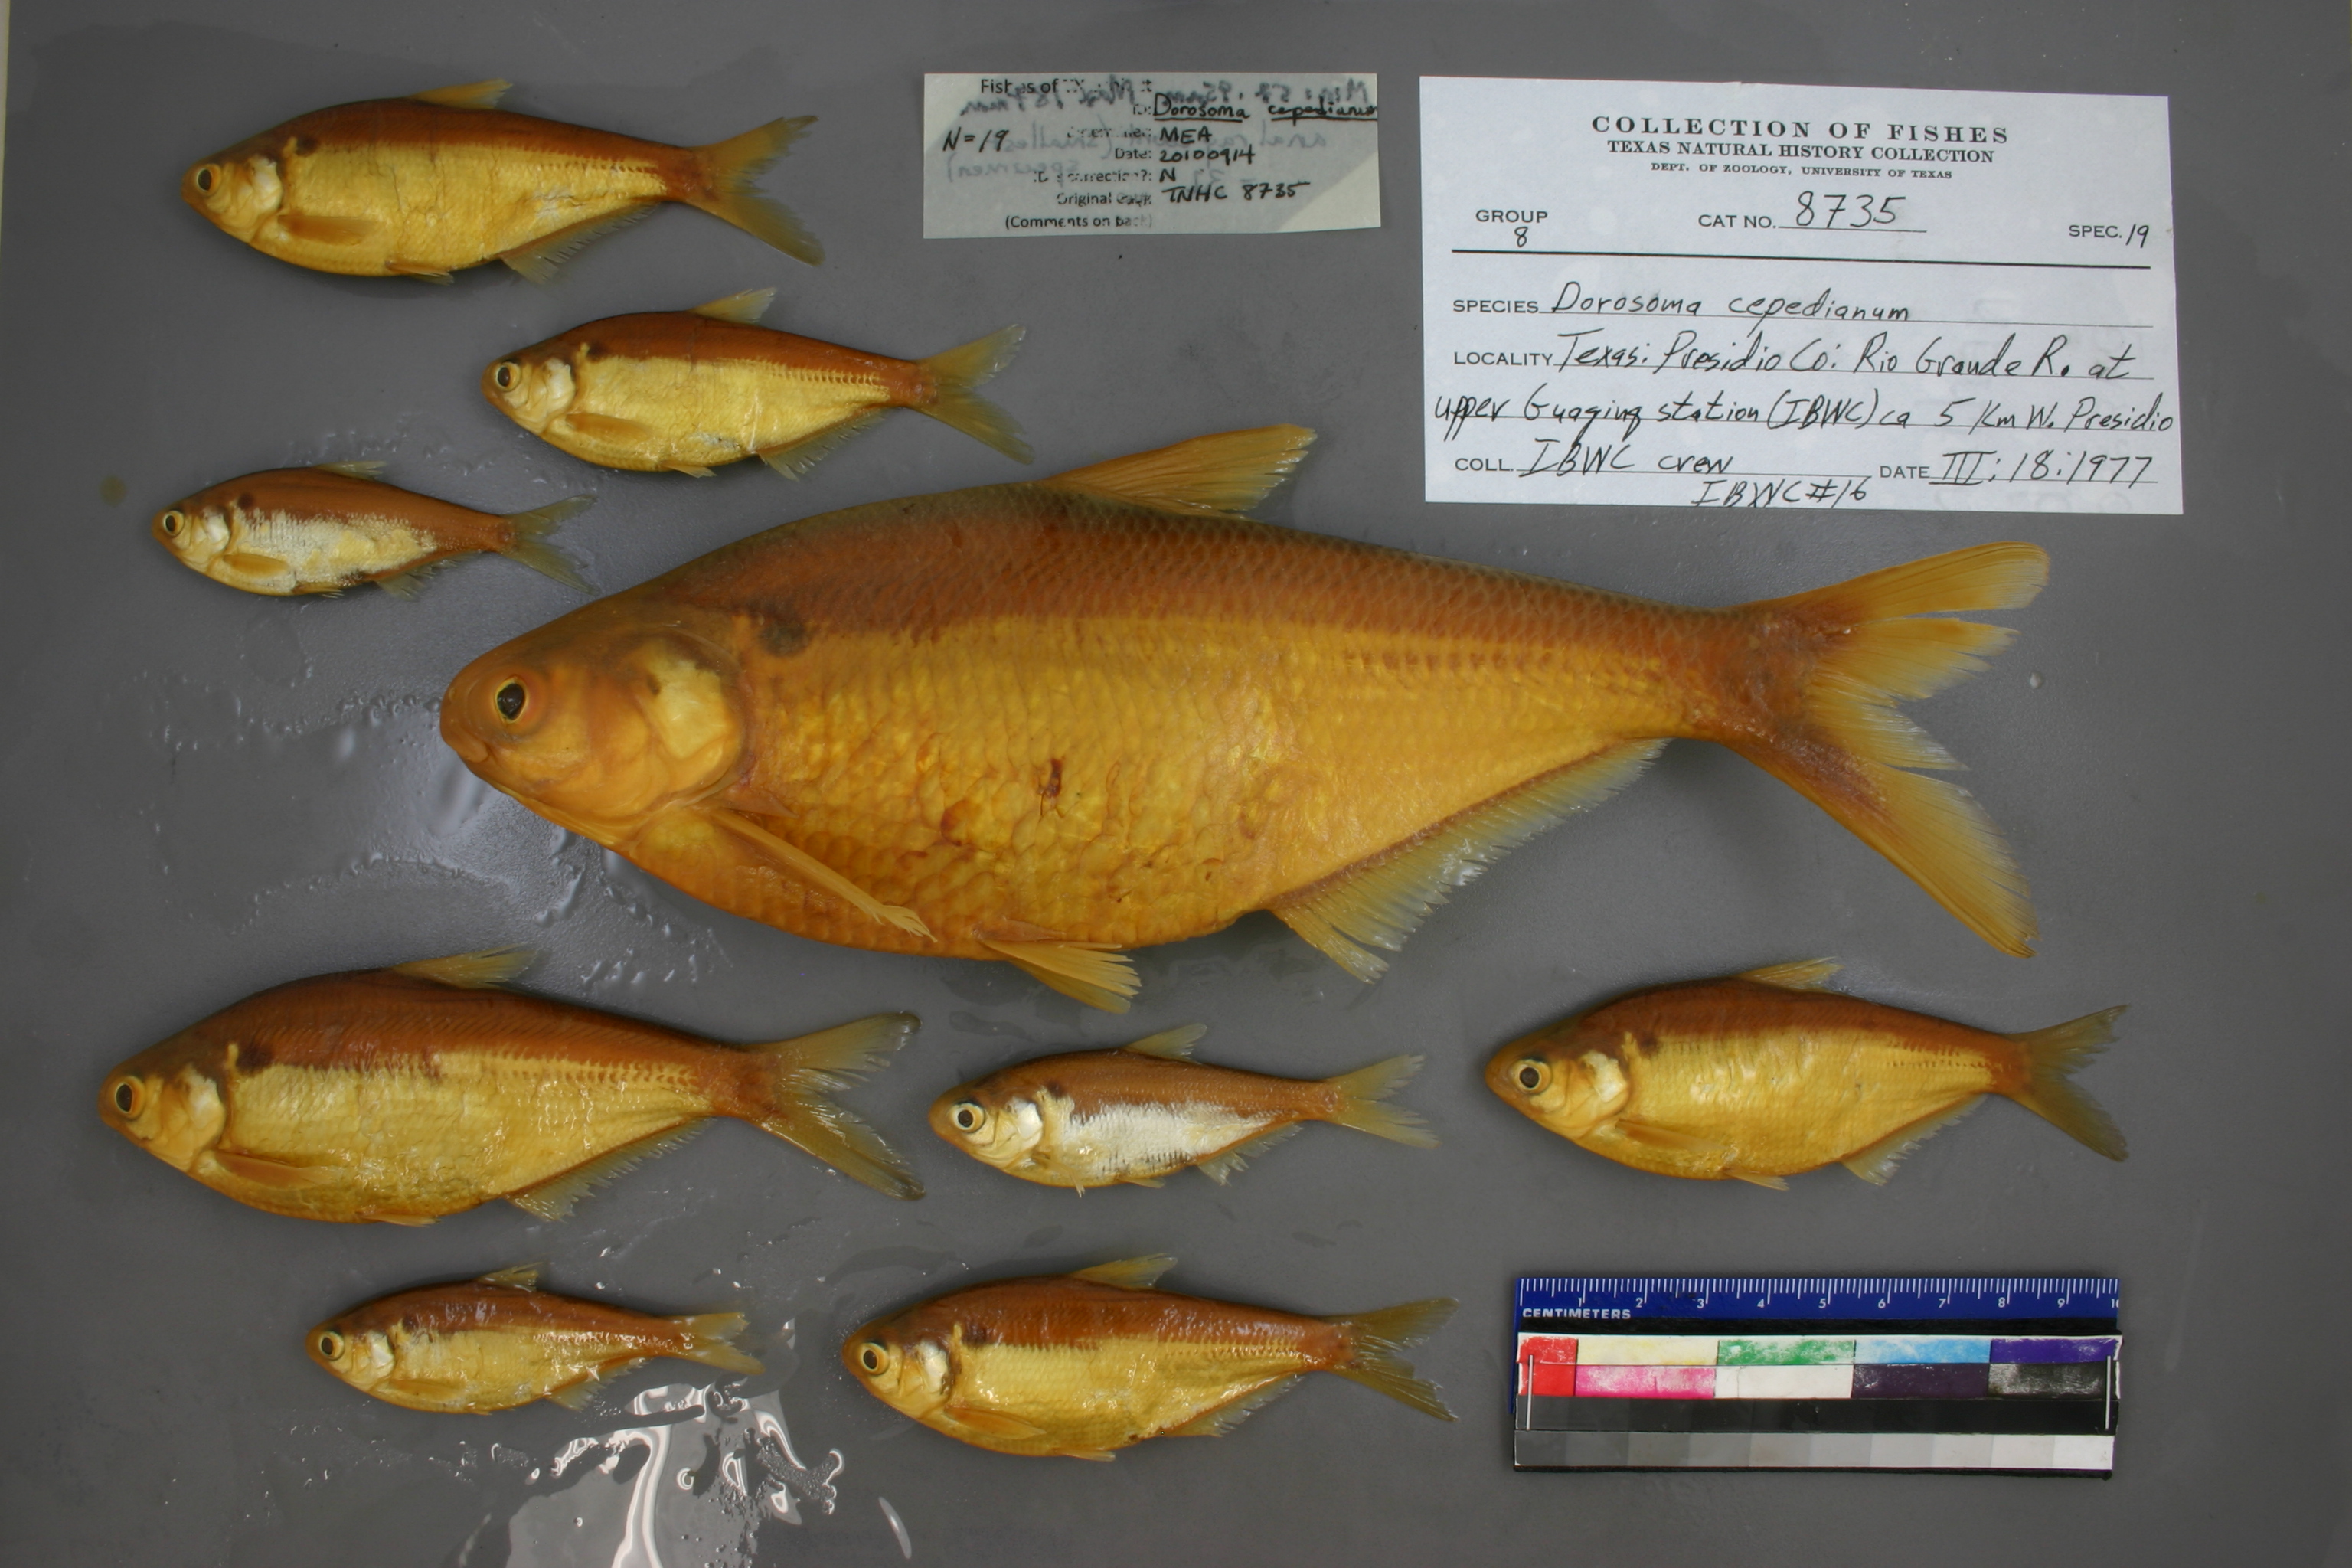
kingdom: Animalia
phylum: Chordata
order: Clupeiformes
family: Clupeidae
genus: Dorosoma
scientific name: Dorosoma cepedianum
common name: Gizzard shad
